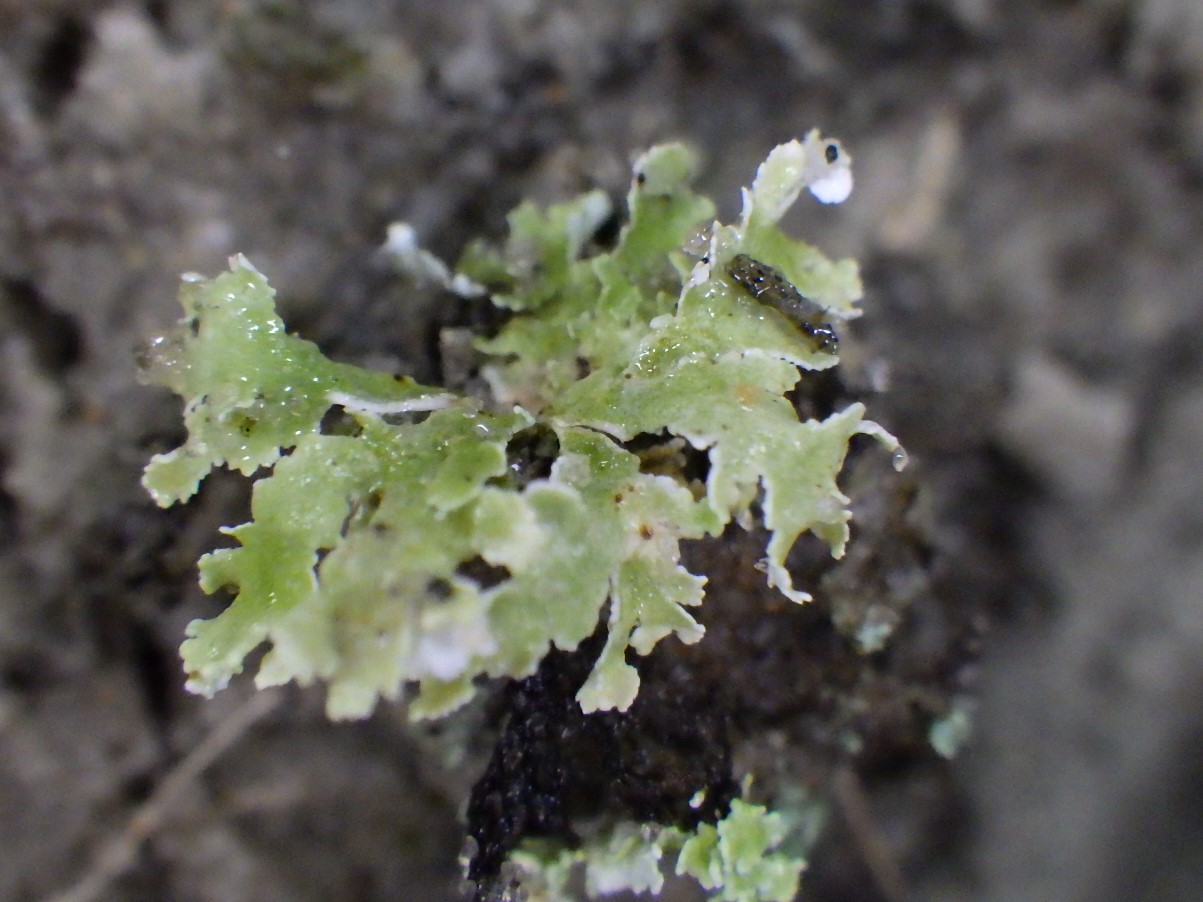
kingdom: Fungi
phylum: Ascomycota
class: Lecanoromycetes
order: Lecanorales
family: Cladoniaceae
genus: Cladonia
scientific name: Cladonia foliacea
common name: fliget bægerlav
